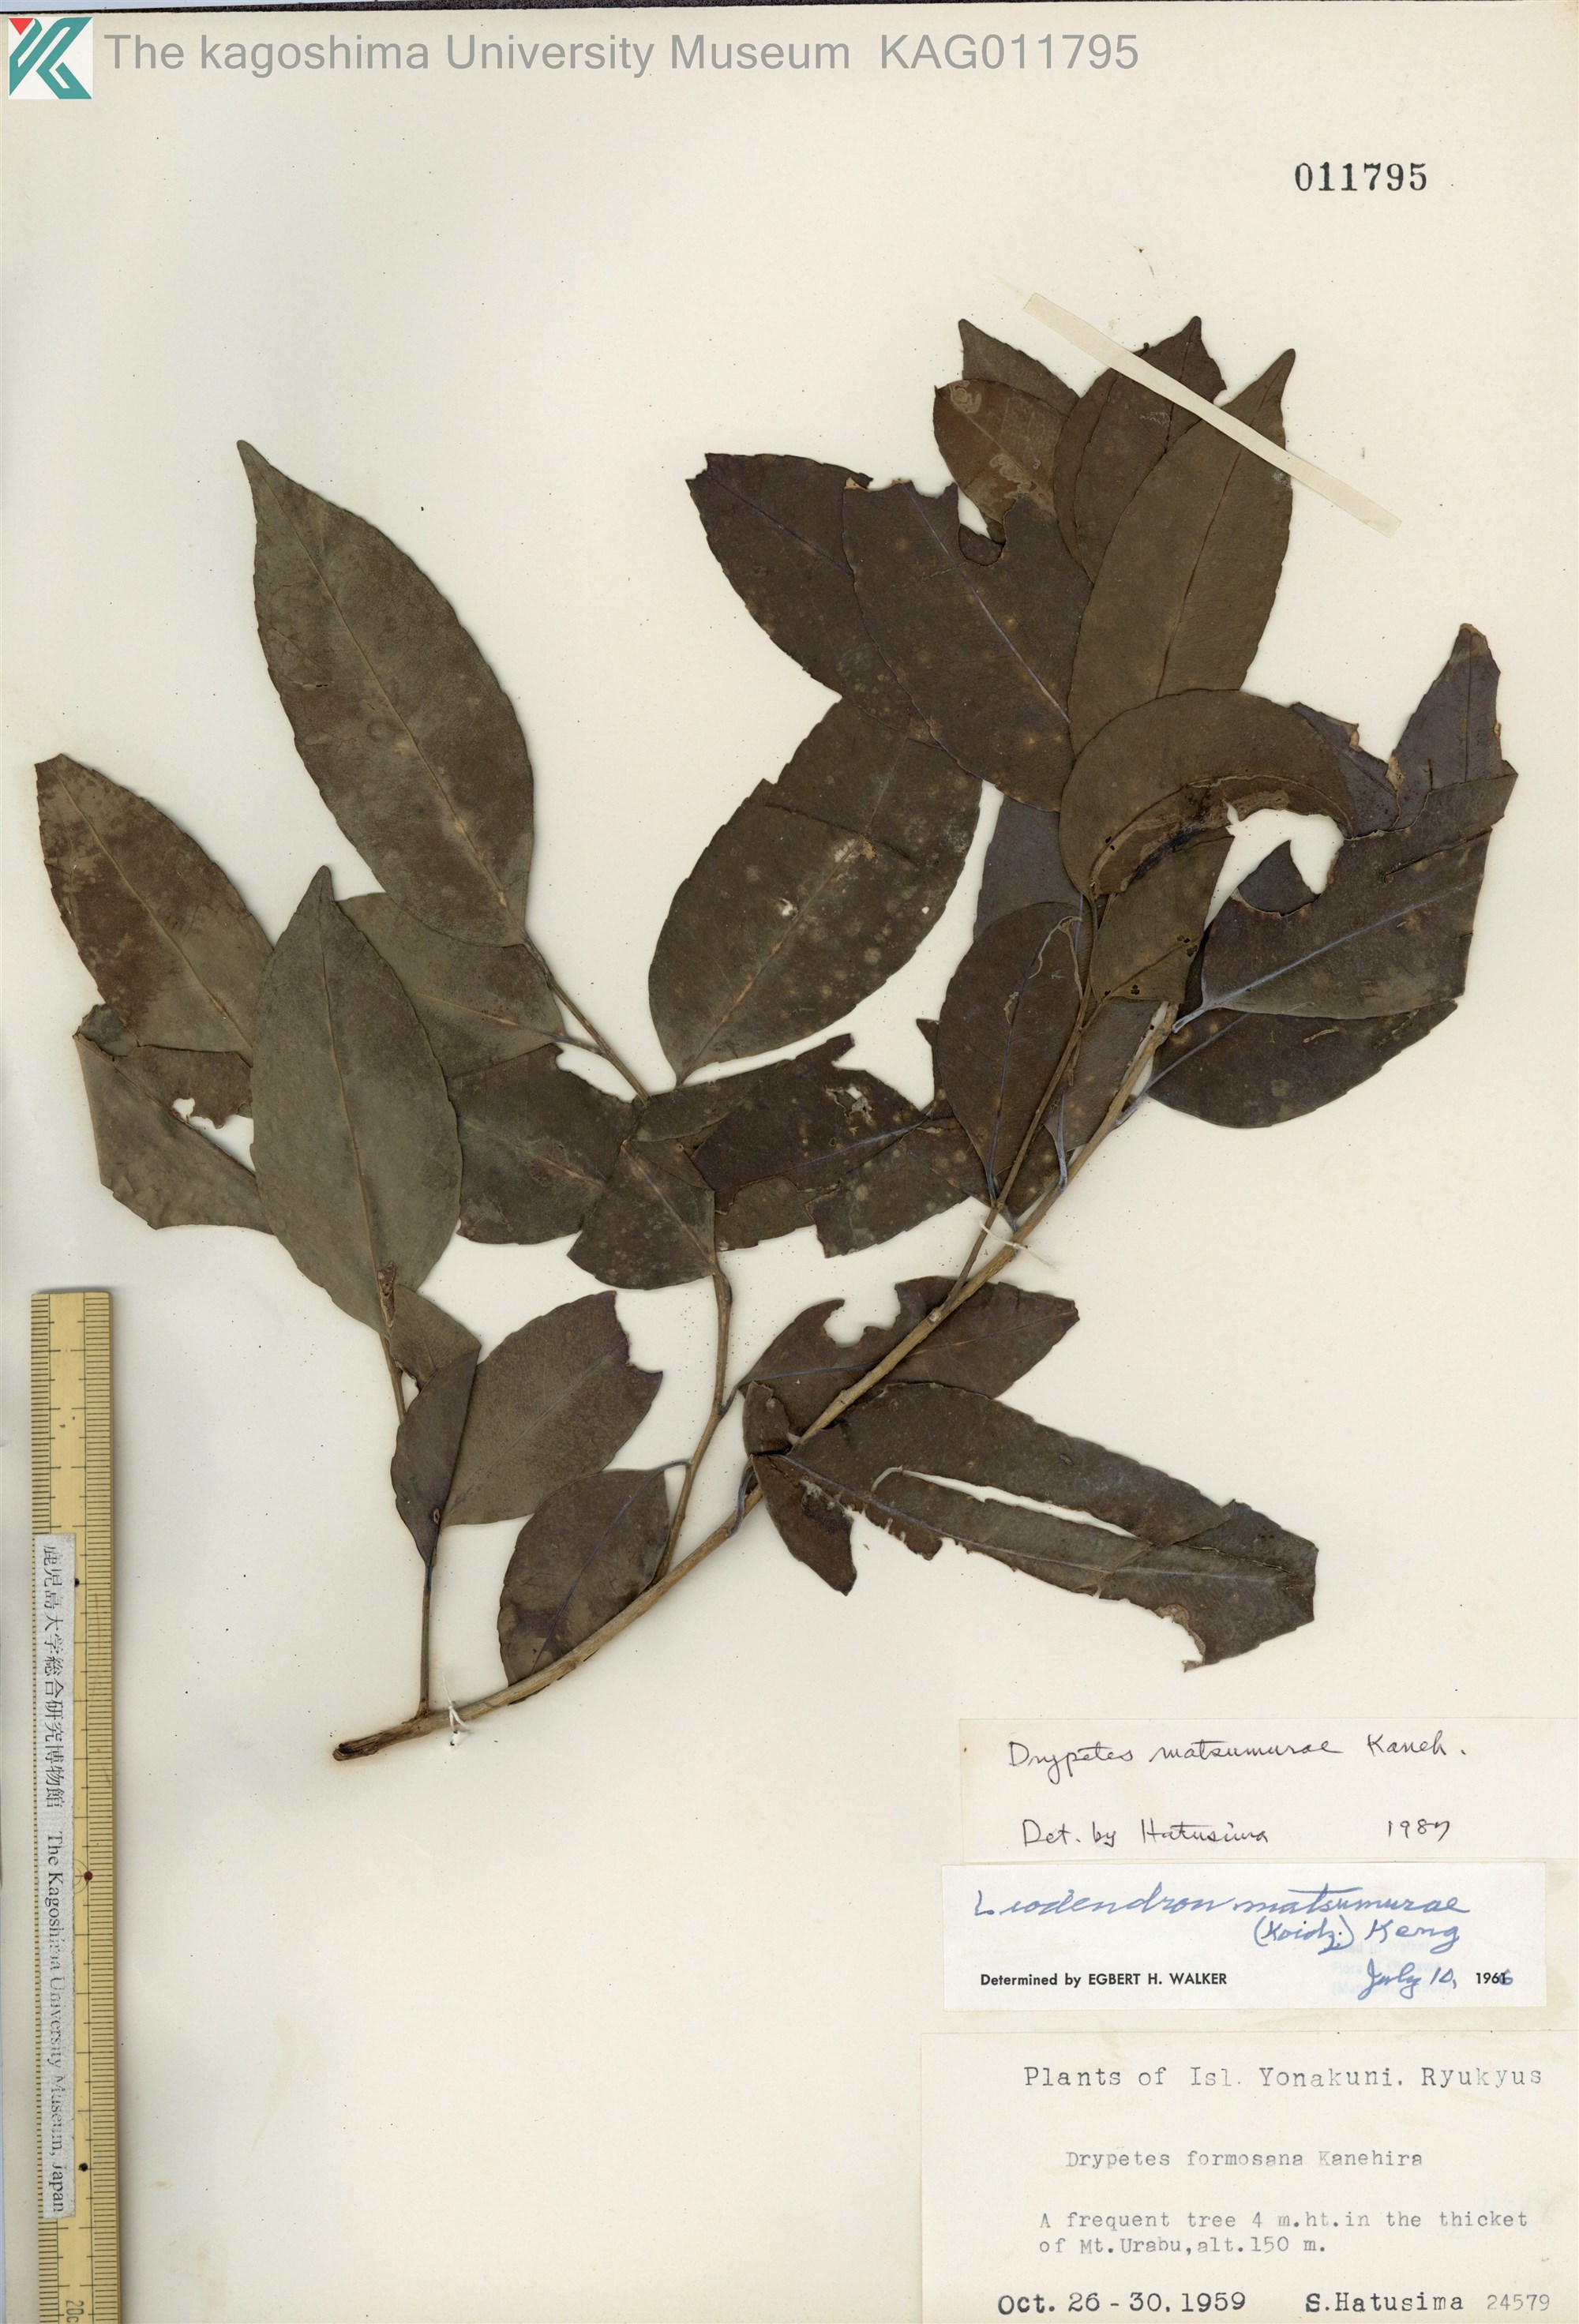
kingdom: Plantae
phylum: Tracheophyta
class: Magnoliopsida
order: Malpighiales
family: Putranjivaceae
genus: Putranjiva
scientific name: Putranjiva matsumurae
